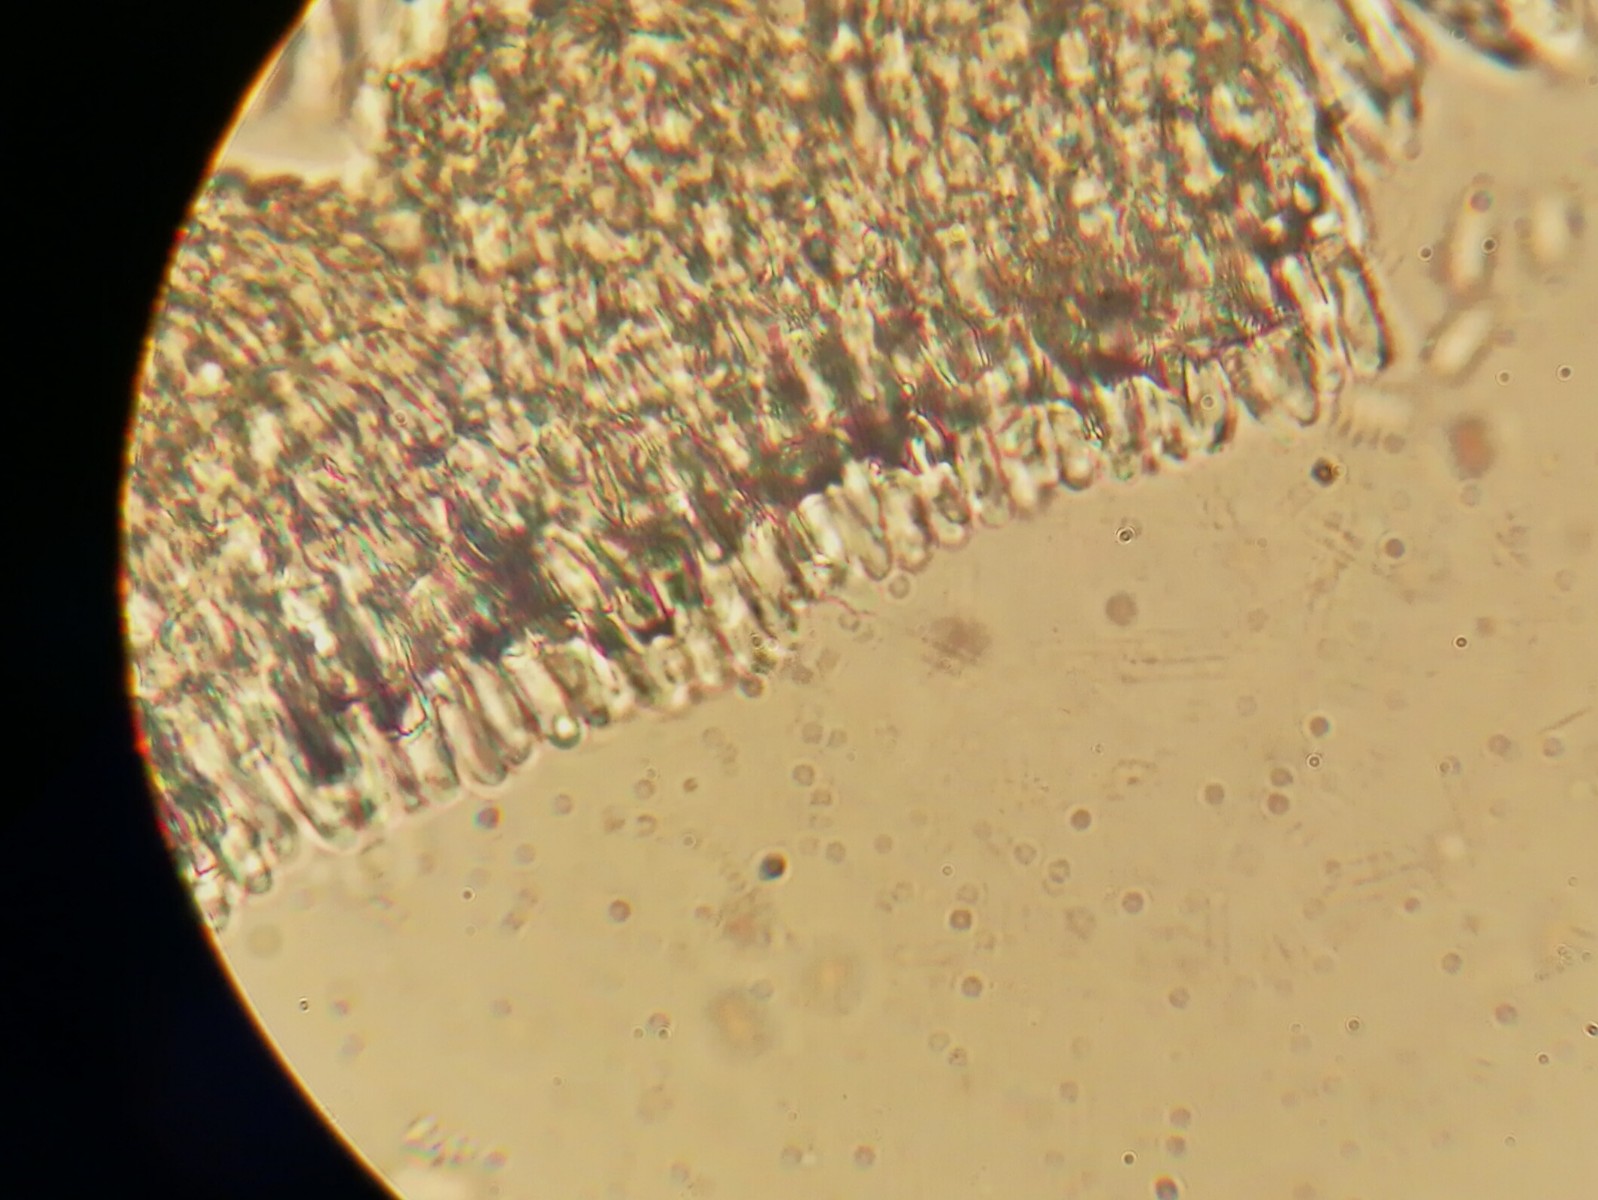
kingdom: Fungi
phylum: Ascomycota
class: Leotiomycetes
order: Helotiales
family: Mollisiaceae
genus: Mollisia
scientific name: Mollisia
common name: gråskive
